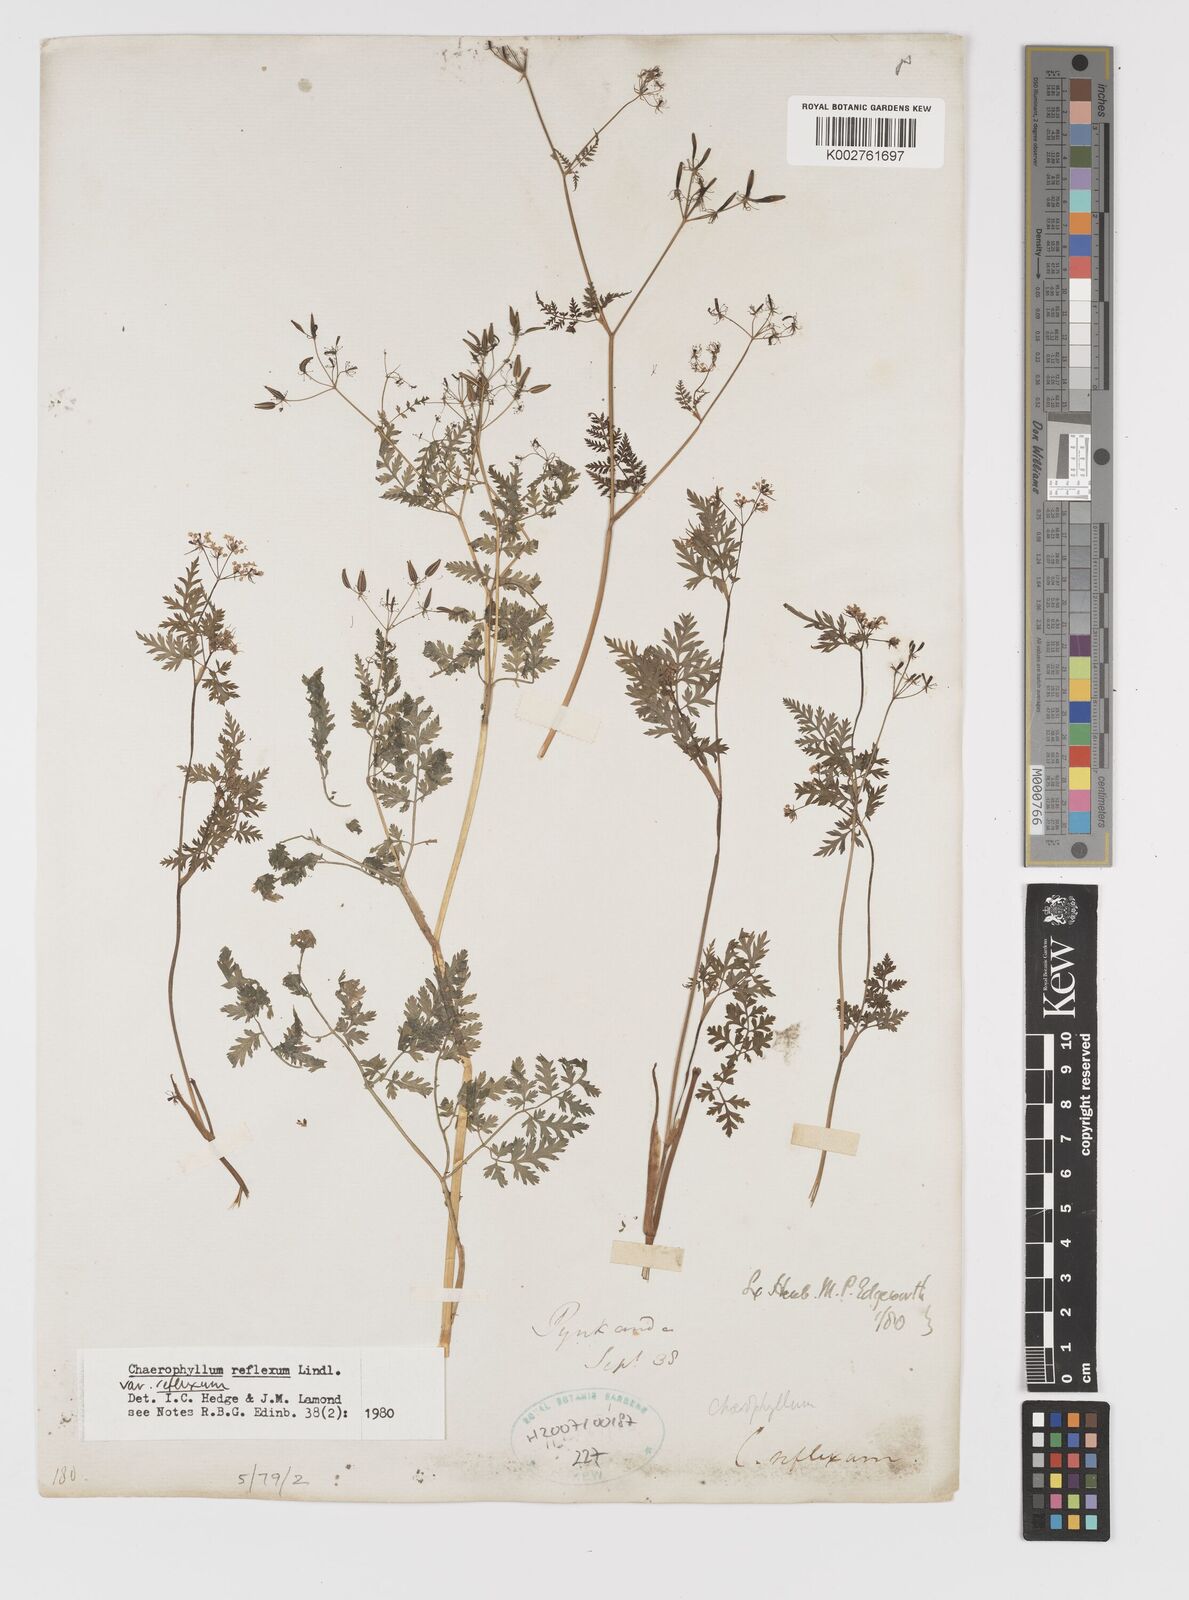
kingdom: Plantae
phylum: Tracheophyta
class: Magnoliopsida
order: Apiales
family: Apiaceae
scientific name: Apiaceae
